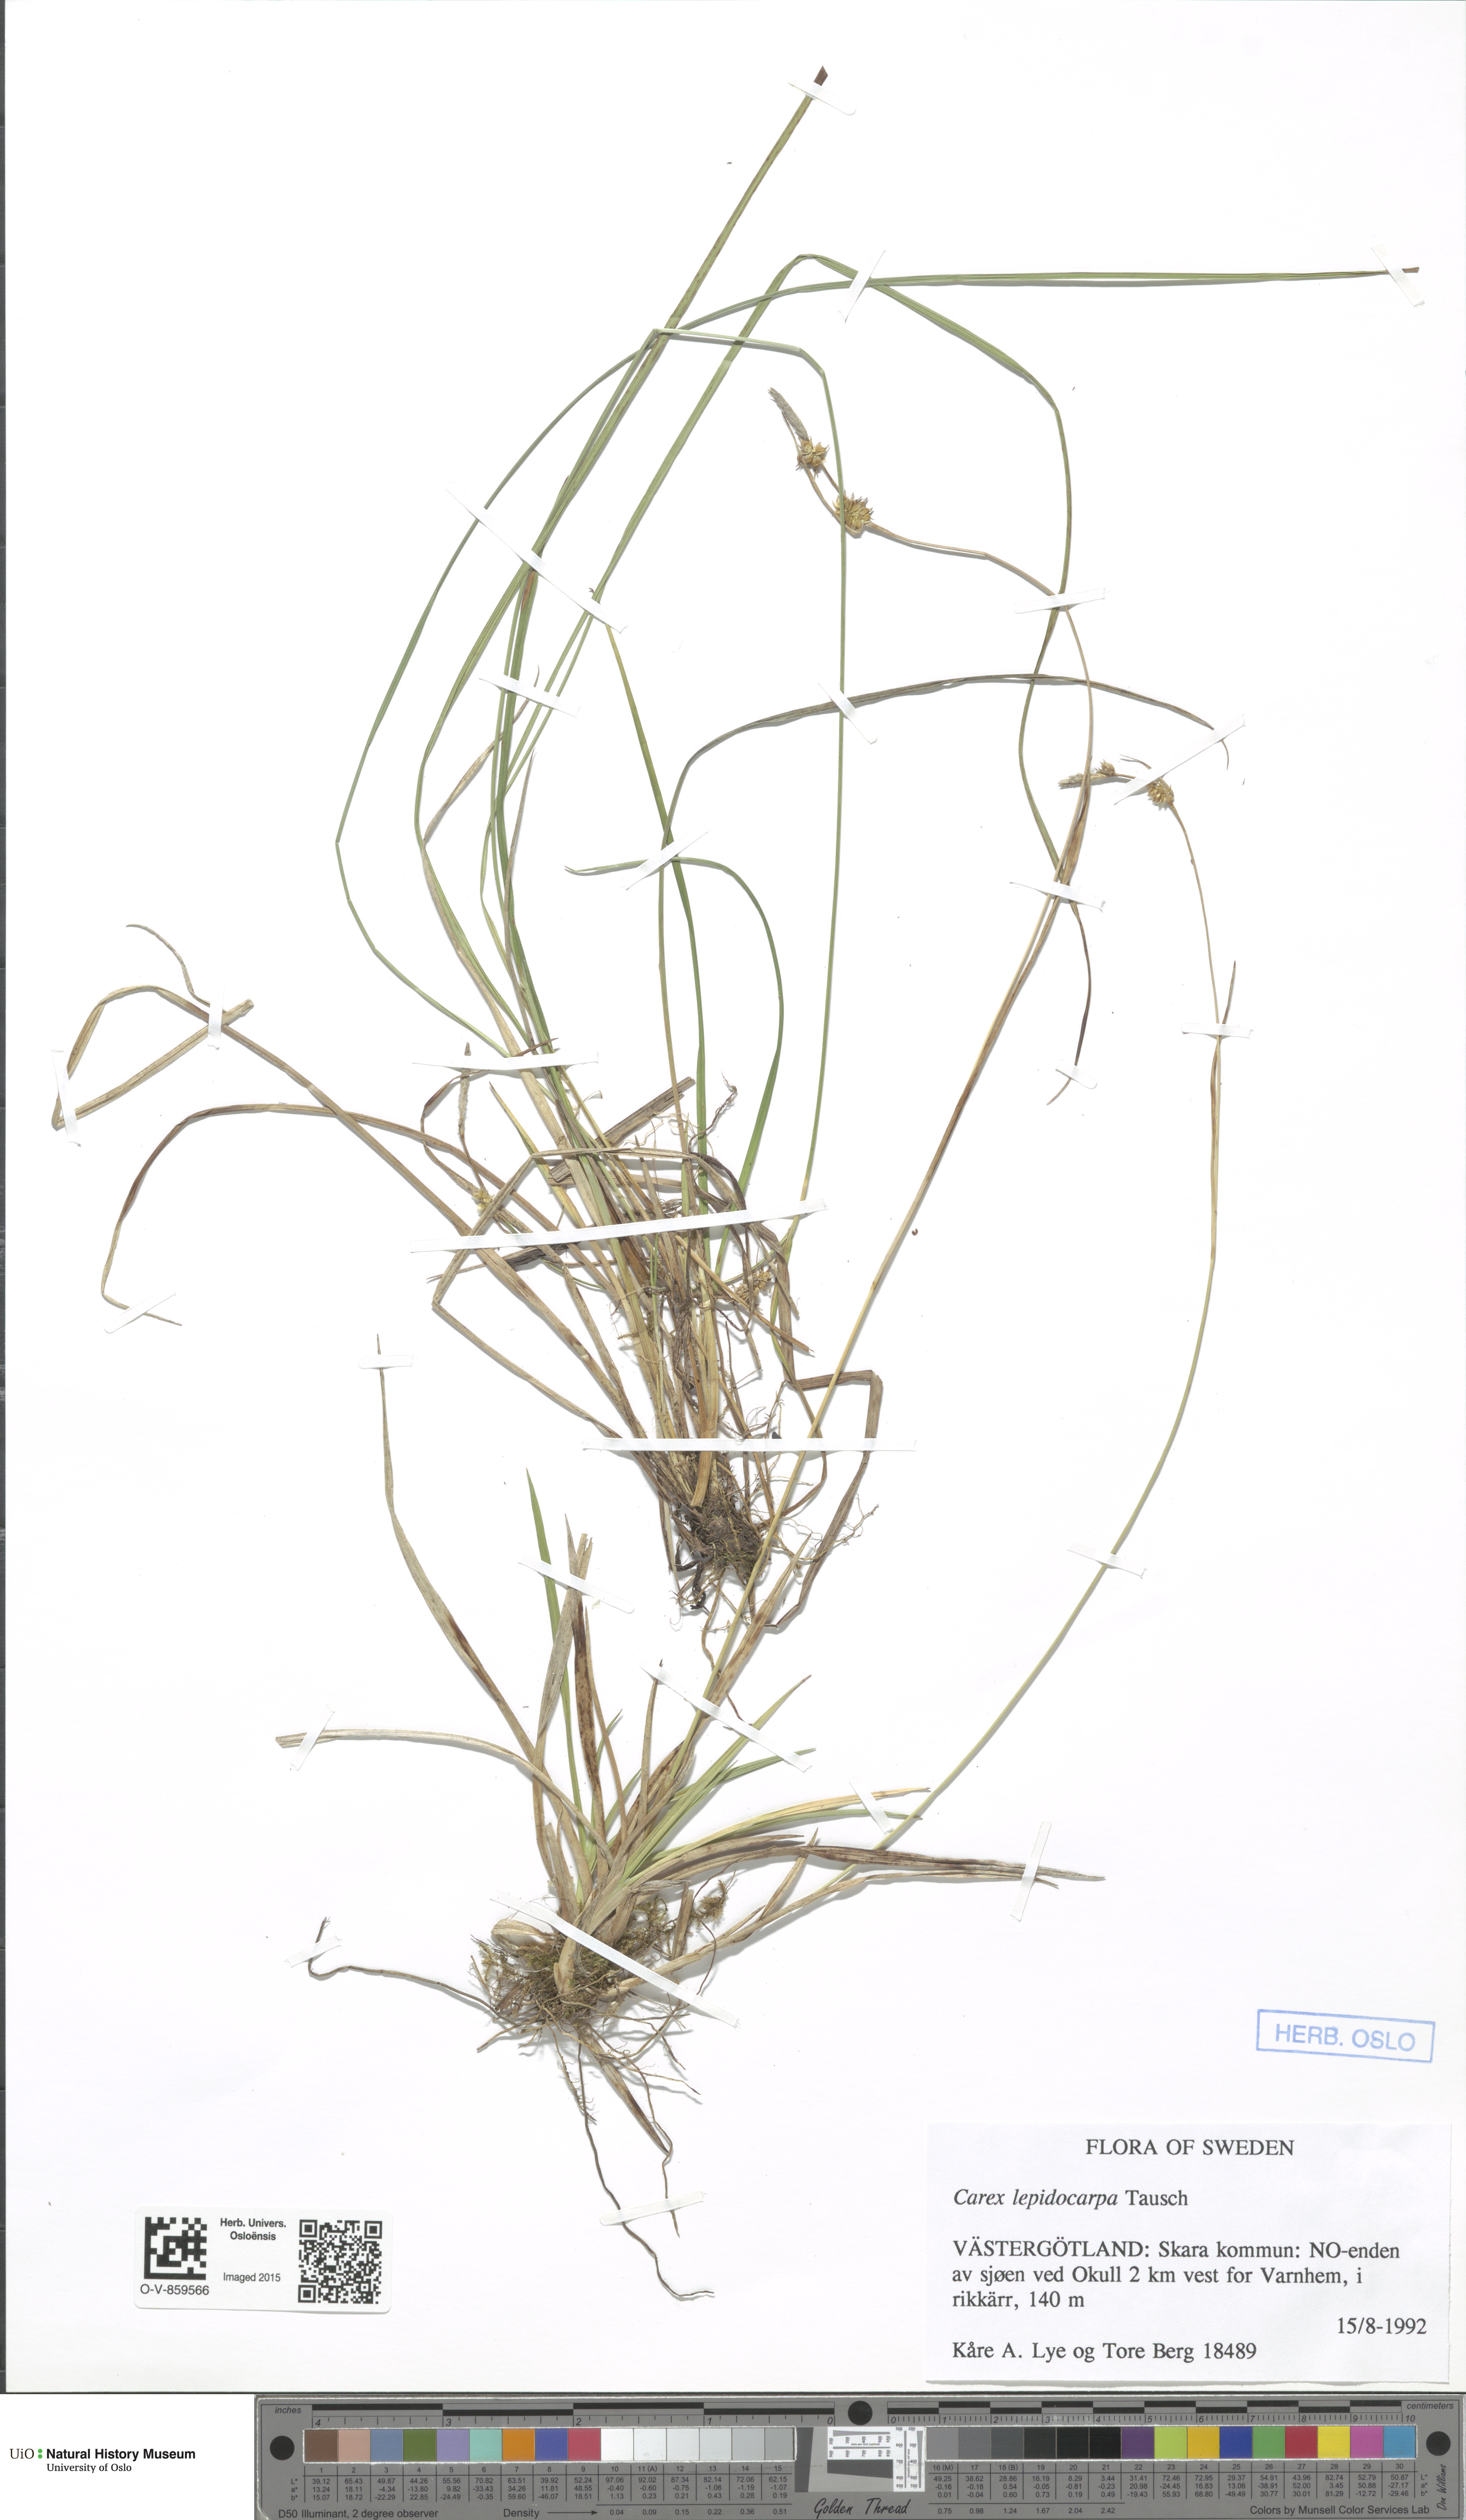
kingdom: Plantae
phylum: Tracheophyta
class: Liliopsida
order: Poales
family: Cyperaceae
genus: Carex
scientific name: Carex lepidocarpa
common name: Long-stalked yellow-sedge
